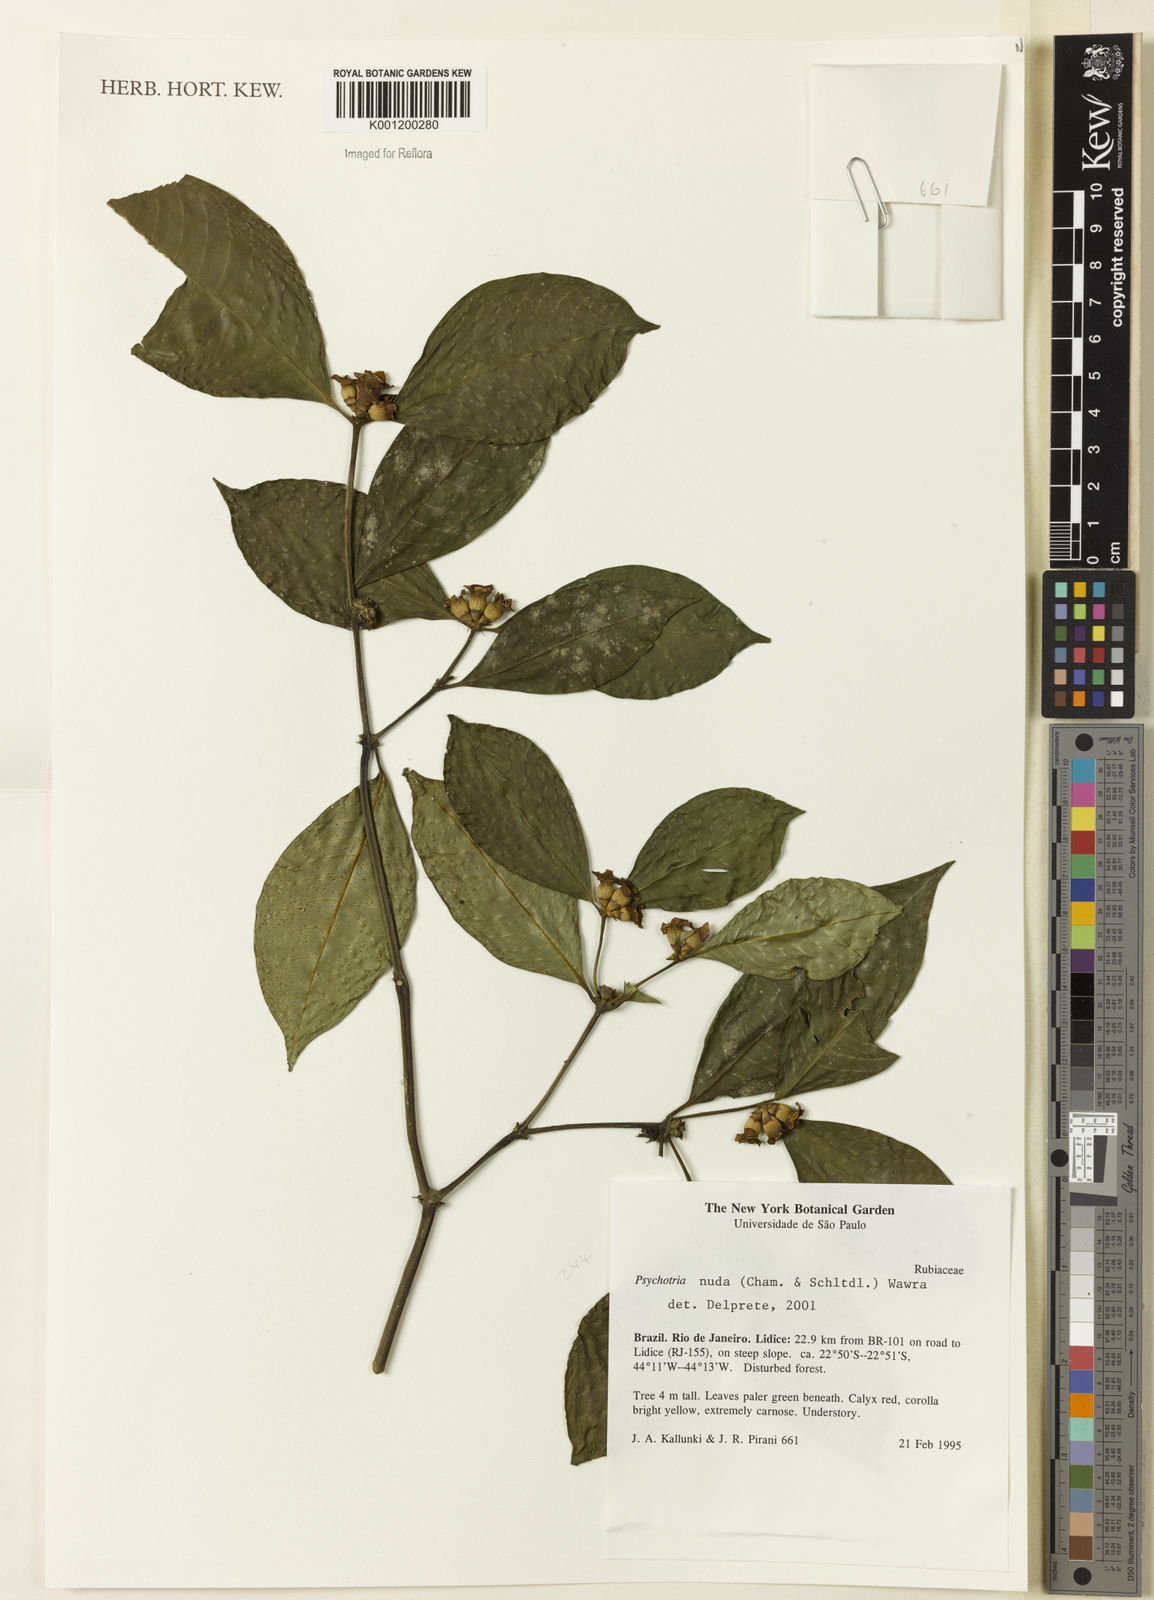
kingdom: Plantae
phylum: Tracheophyta
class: Magnoliopsida
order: Gentianales
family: Rubiaceae
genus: Psychotria
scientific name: Psychotria nuda
